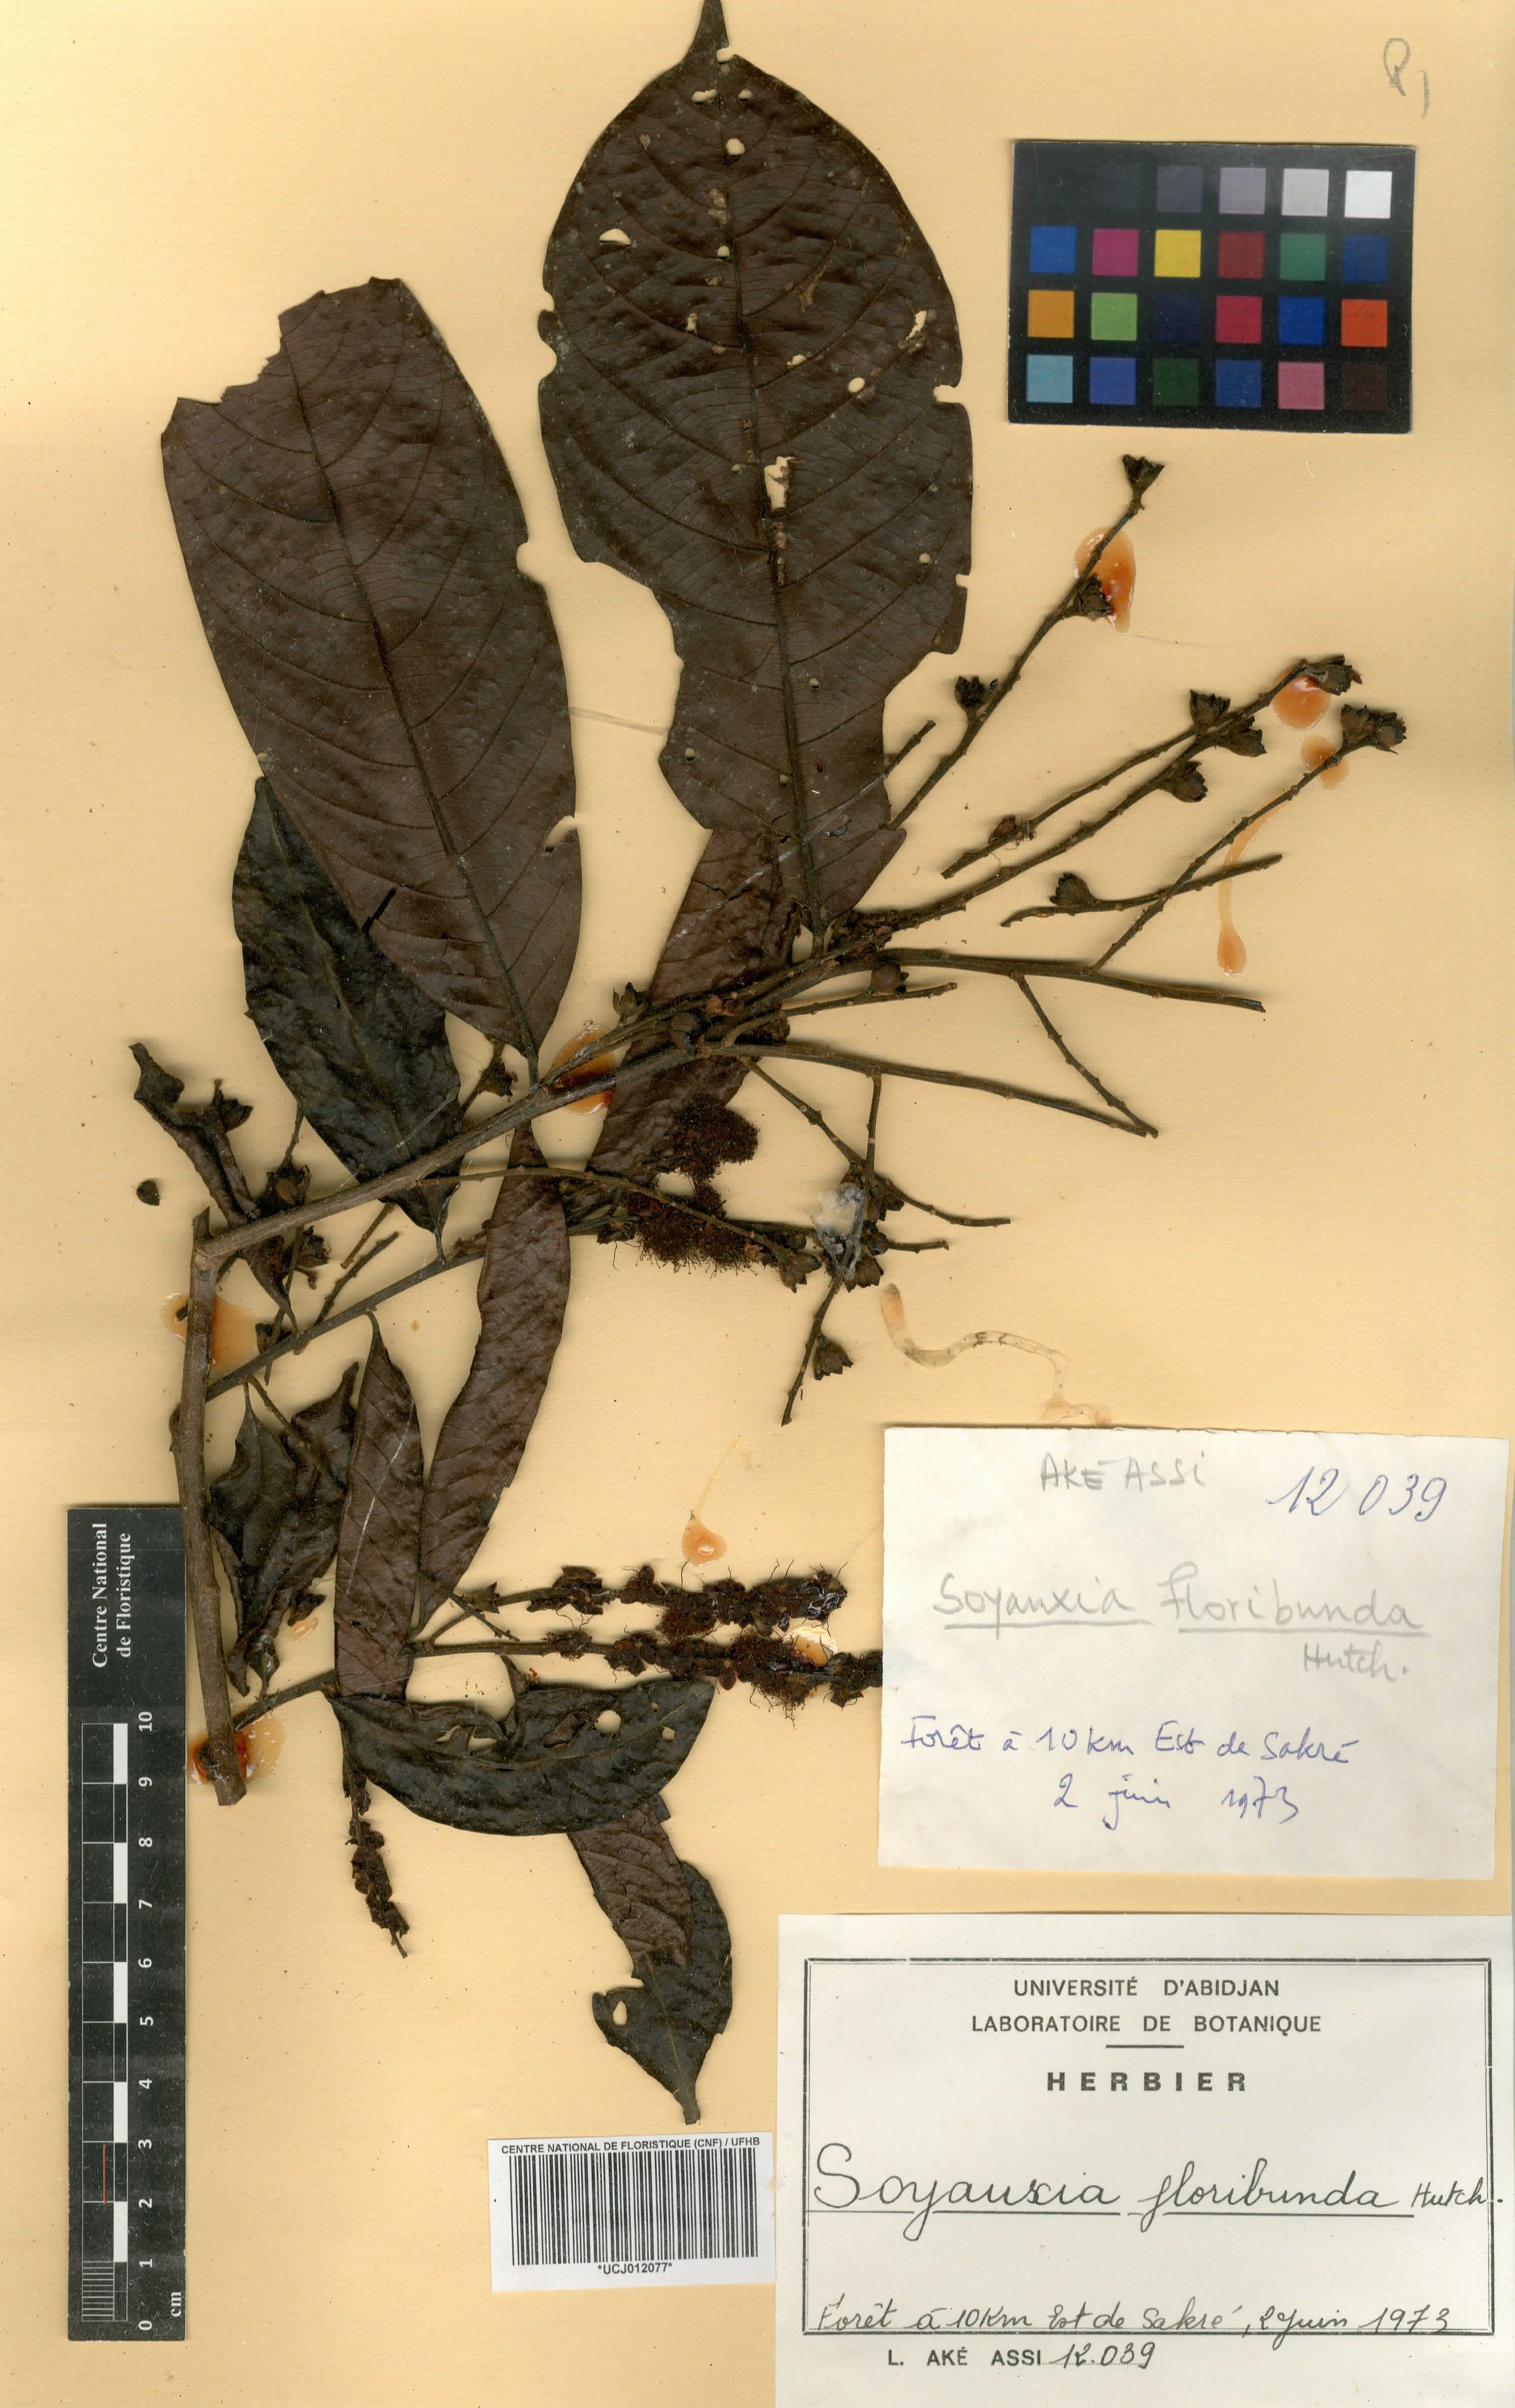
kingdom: Plantae
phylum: Tracheophyta
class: Magnoliopsida
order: Saxifragales
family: Peridiscaceae
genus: Soyauxia
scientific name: Soyauxia floribunda
